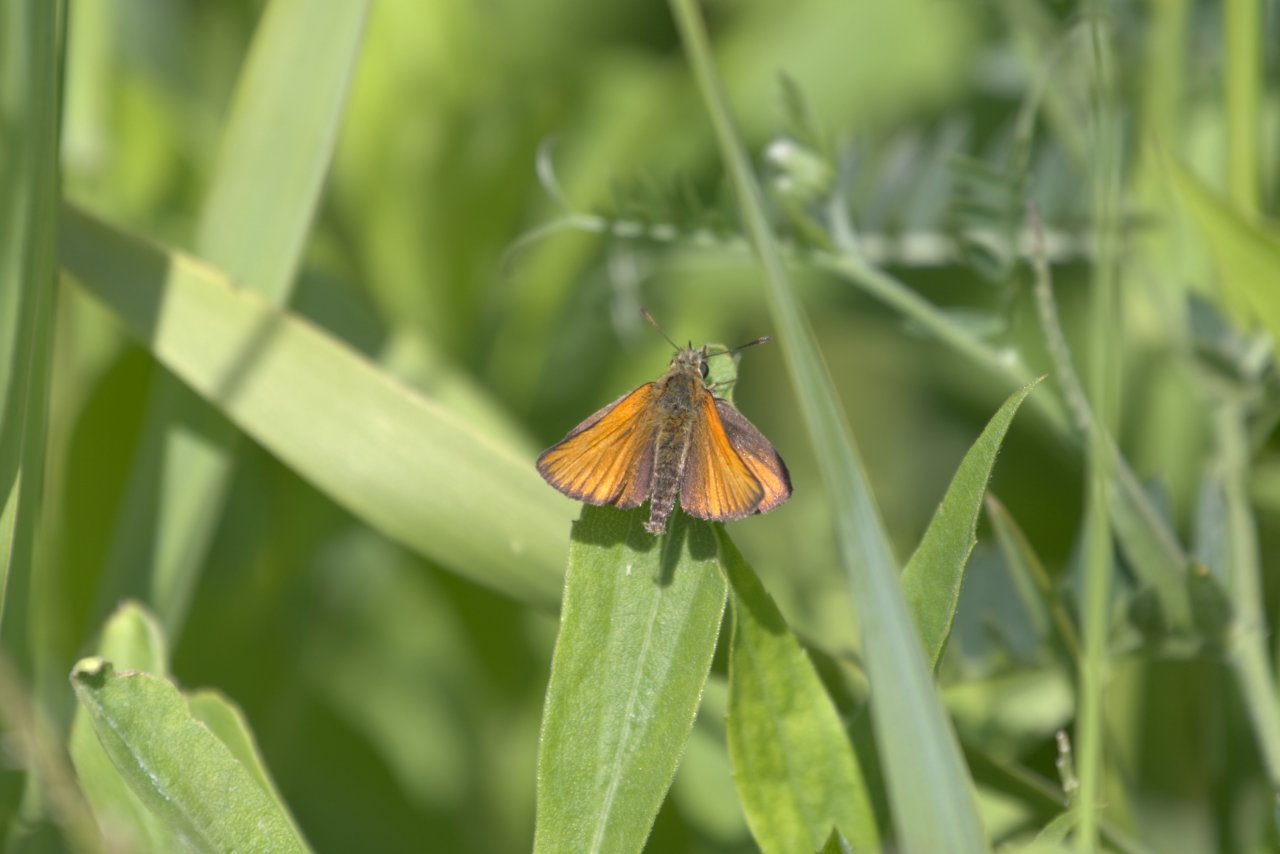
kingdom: Animalia
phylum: Arthropoda
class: Insecta
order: Lepidoptera
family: Hesperiidae
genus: Thymelicus
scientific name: Thymelicus lineola
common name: European Skipper
